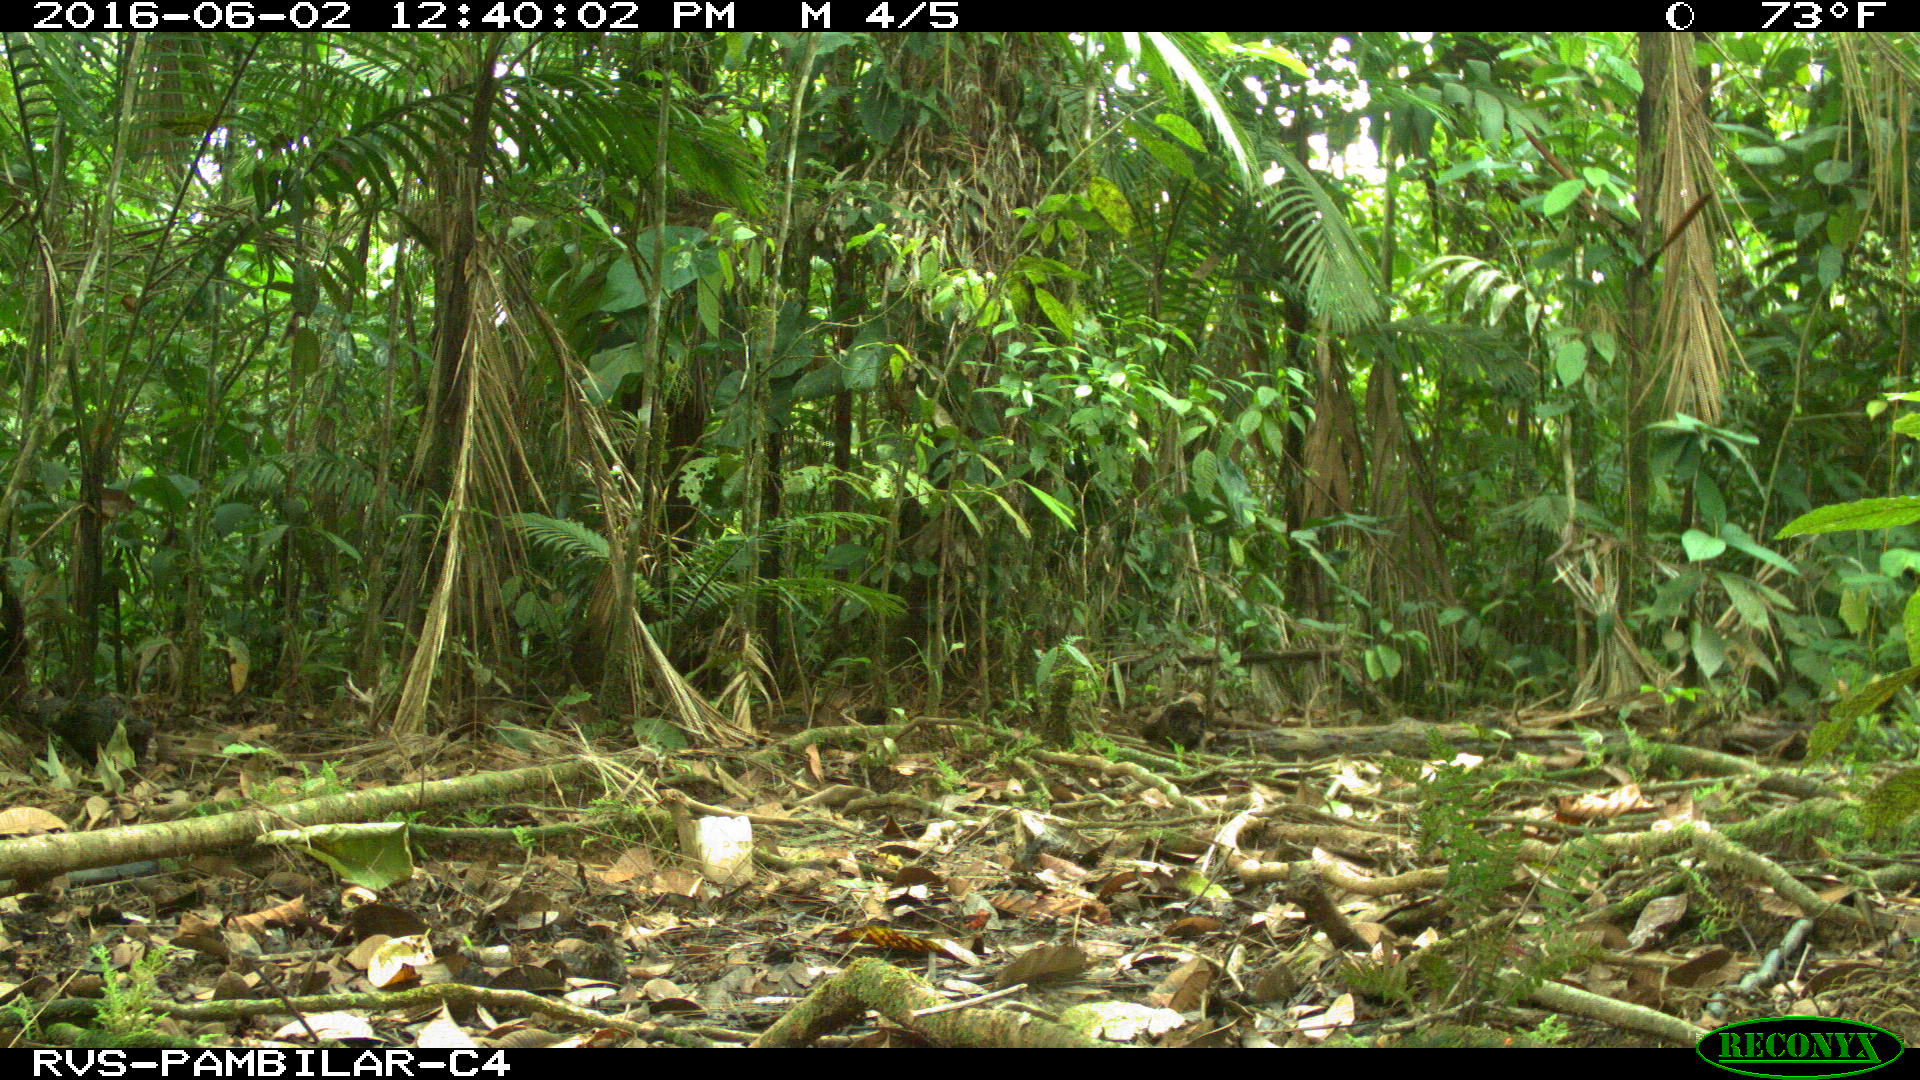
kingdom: Animalia
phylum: Chordata
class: Mammalia
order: Artiodactyla
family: Tayassuidae
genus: Tayassu
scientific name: Tayassu pecari
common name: White-lipped peccary
